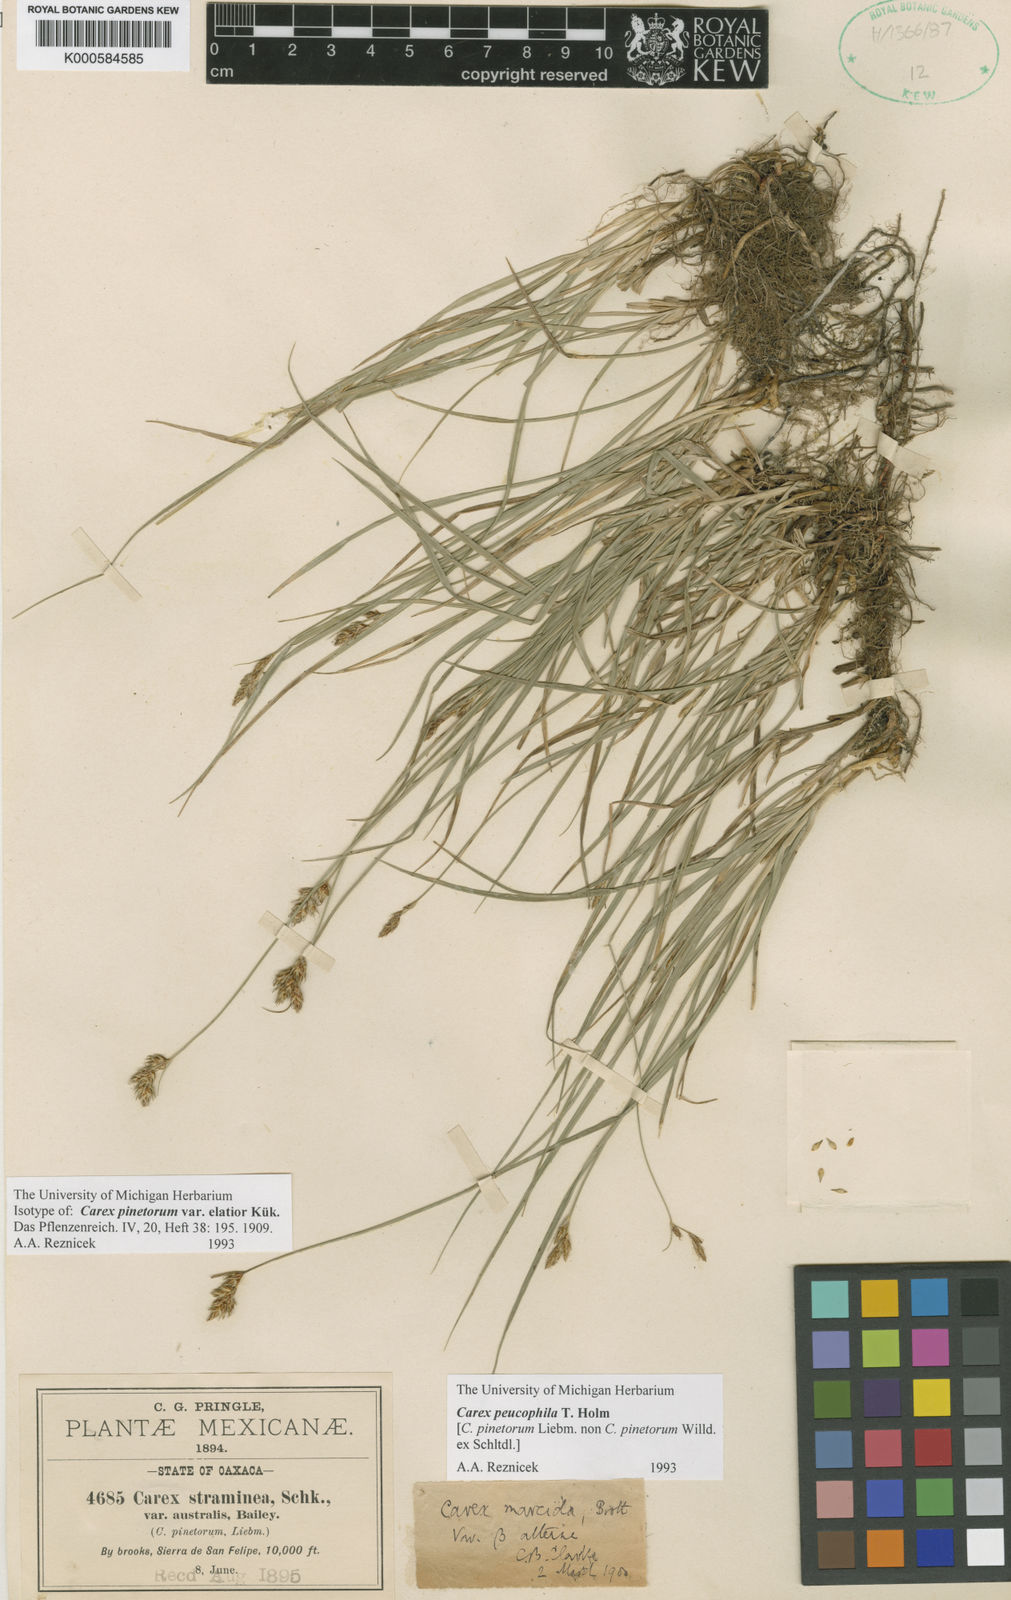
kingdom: Plantae
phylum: Tracheophyta
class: Liliopsida
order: Poales
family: Cyperaceae
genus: Carex
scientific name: Carex peucophila
